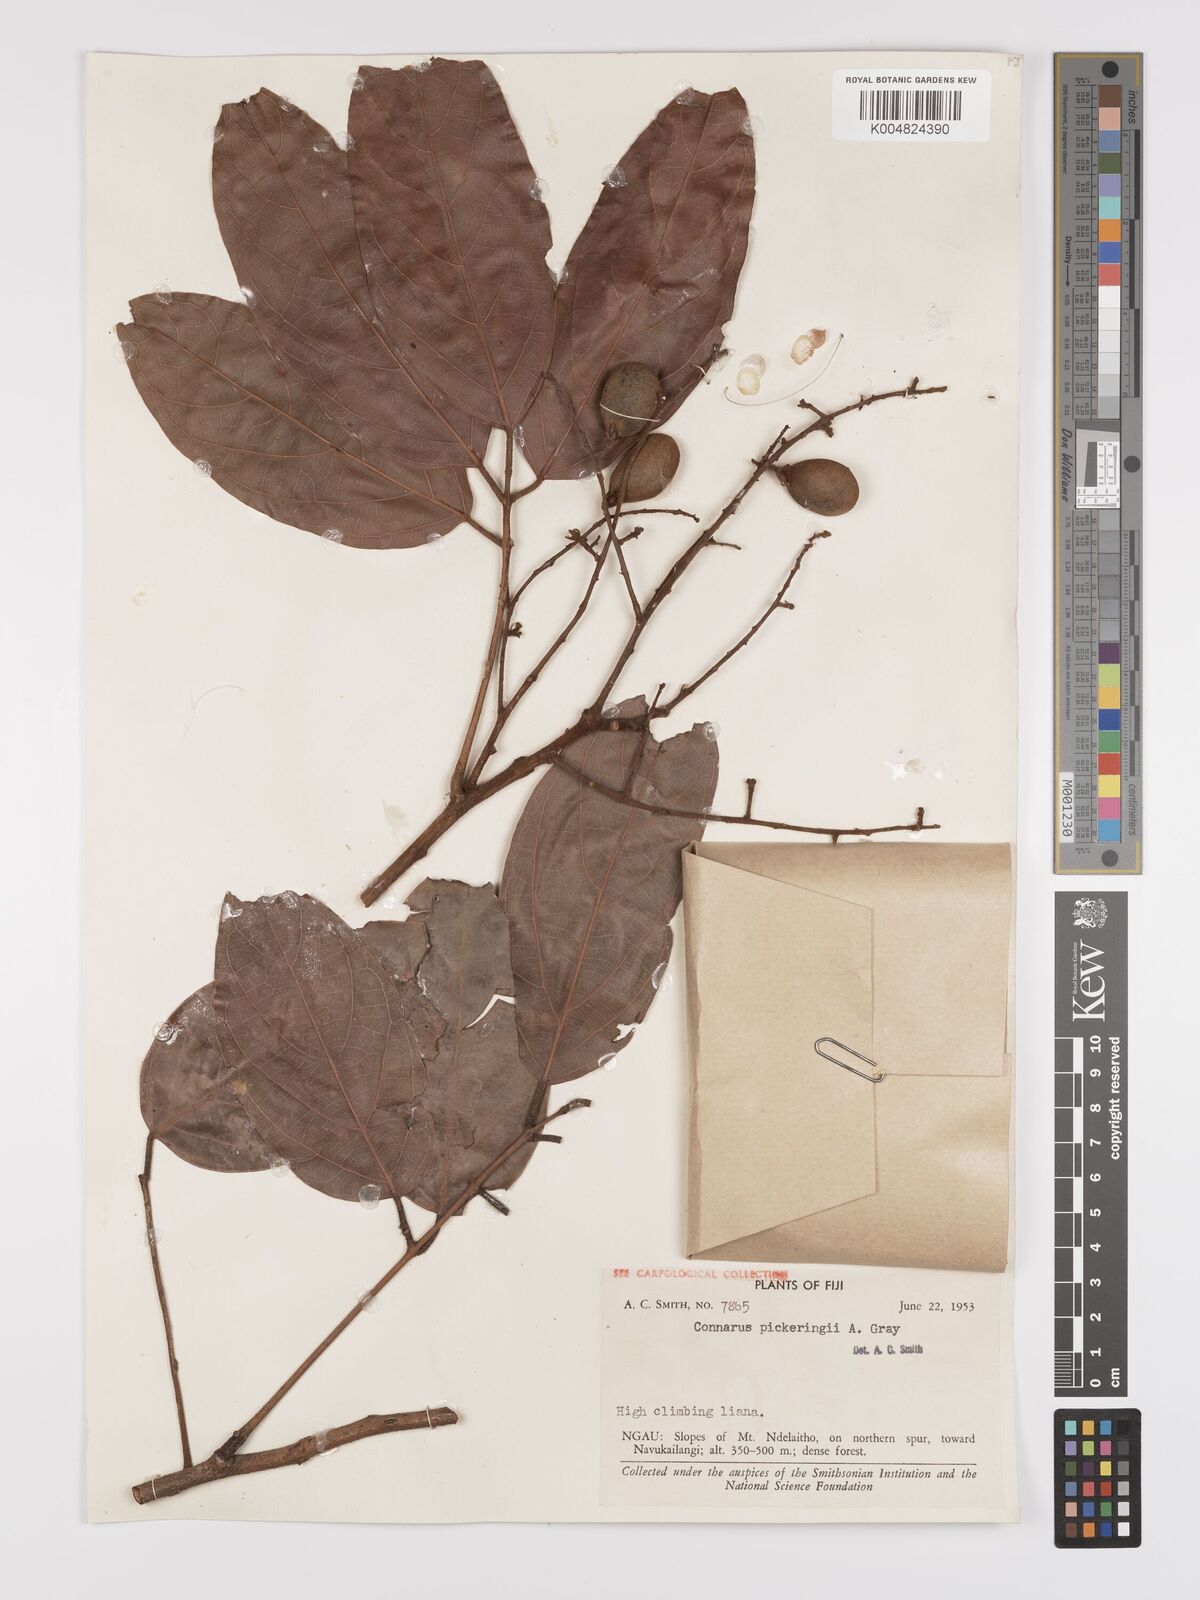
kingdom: Plantae
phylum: Tracheophyta
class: Magnoliopsida
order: Oxalidales
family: Connaraceae
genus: Connarus
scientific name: Connarus pickeringii
